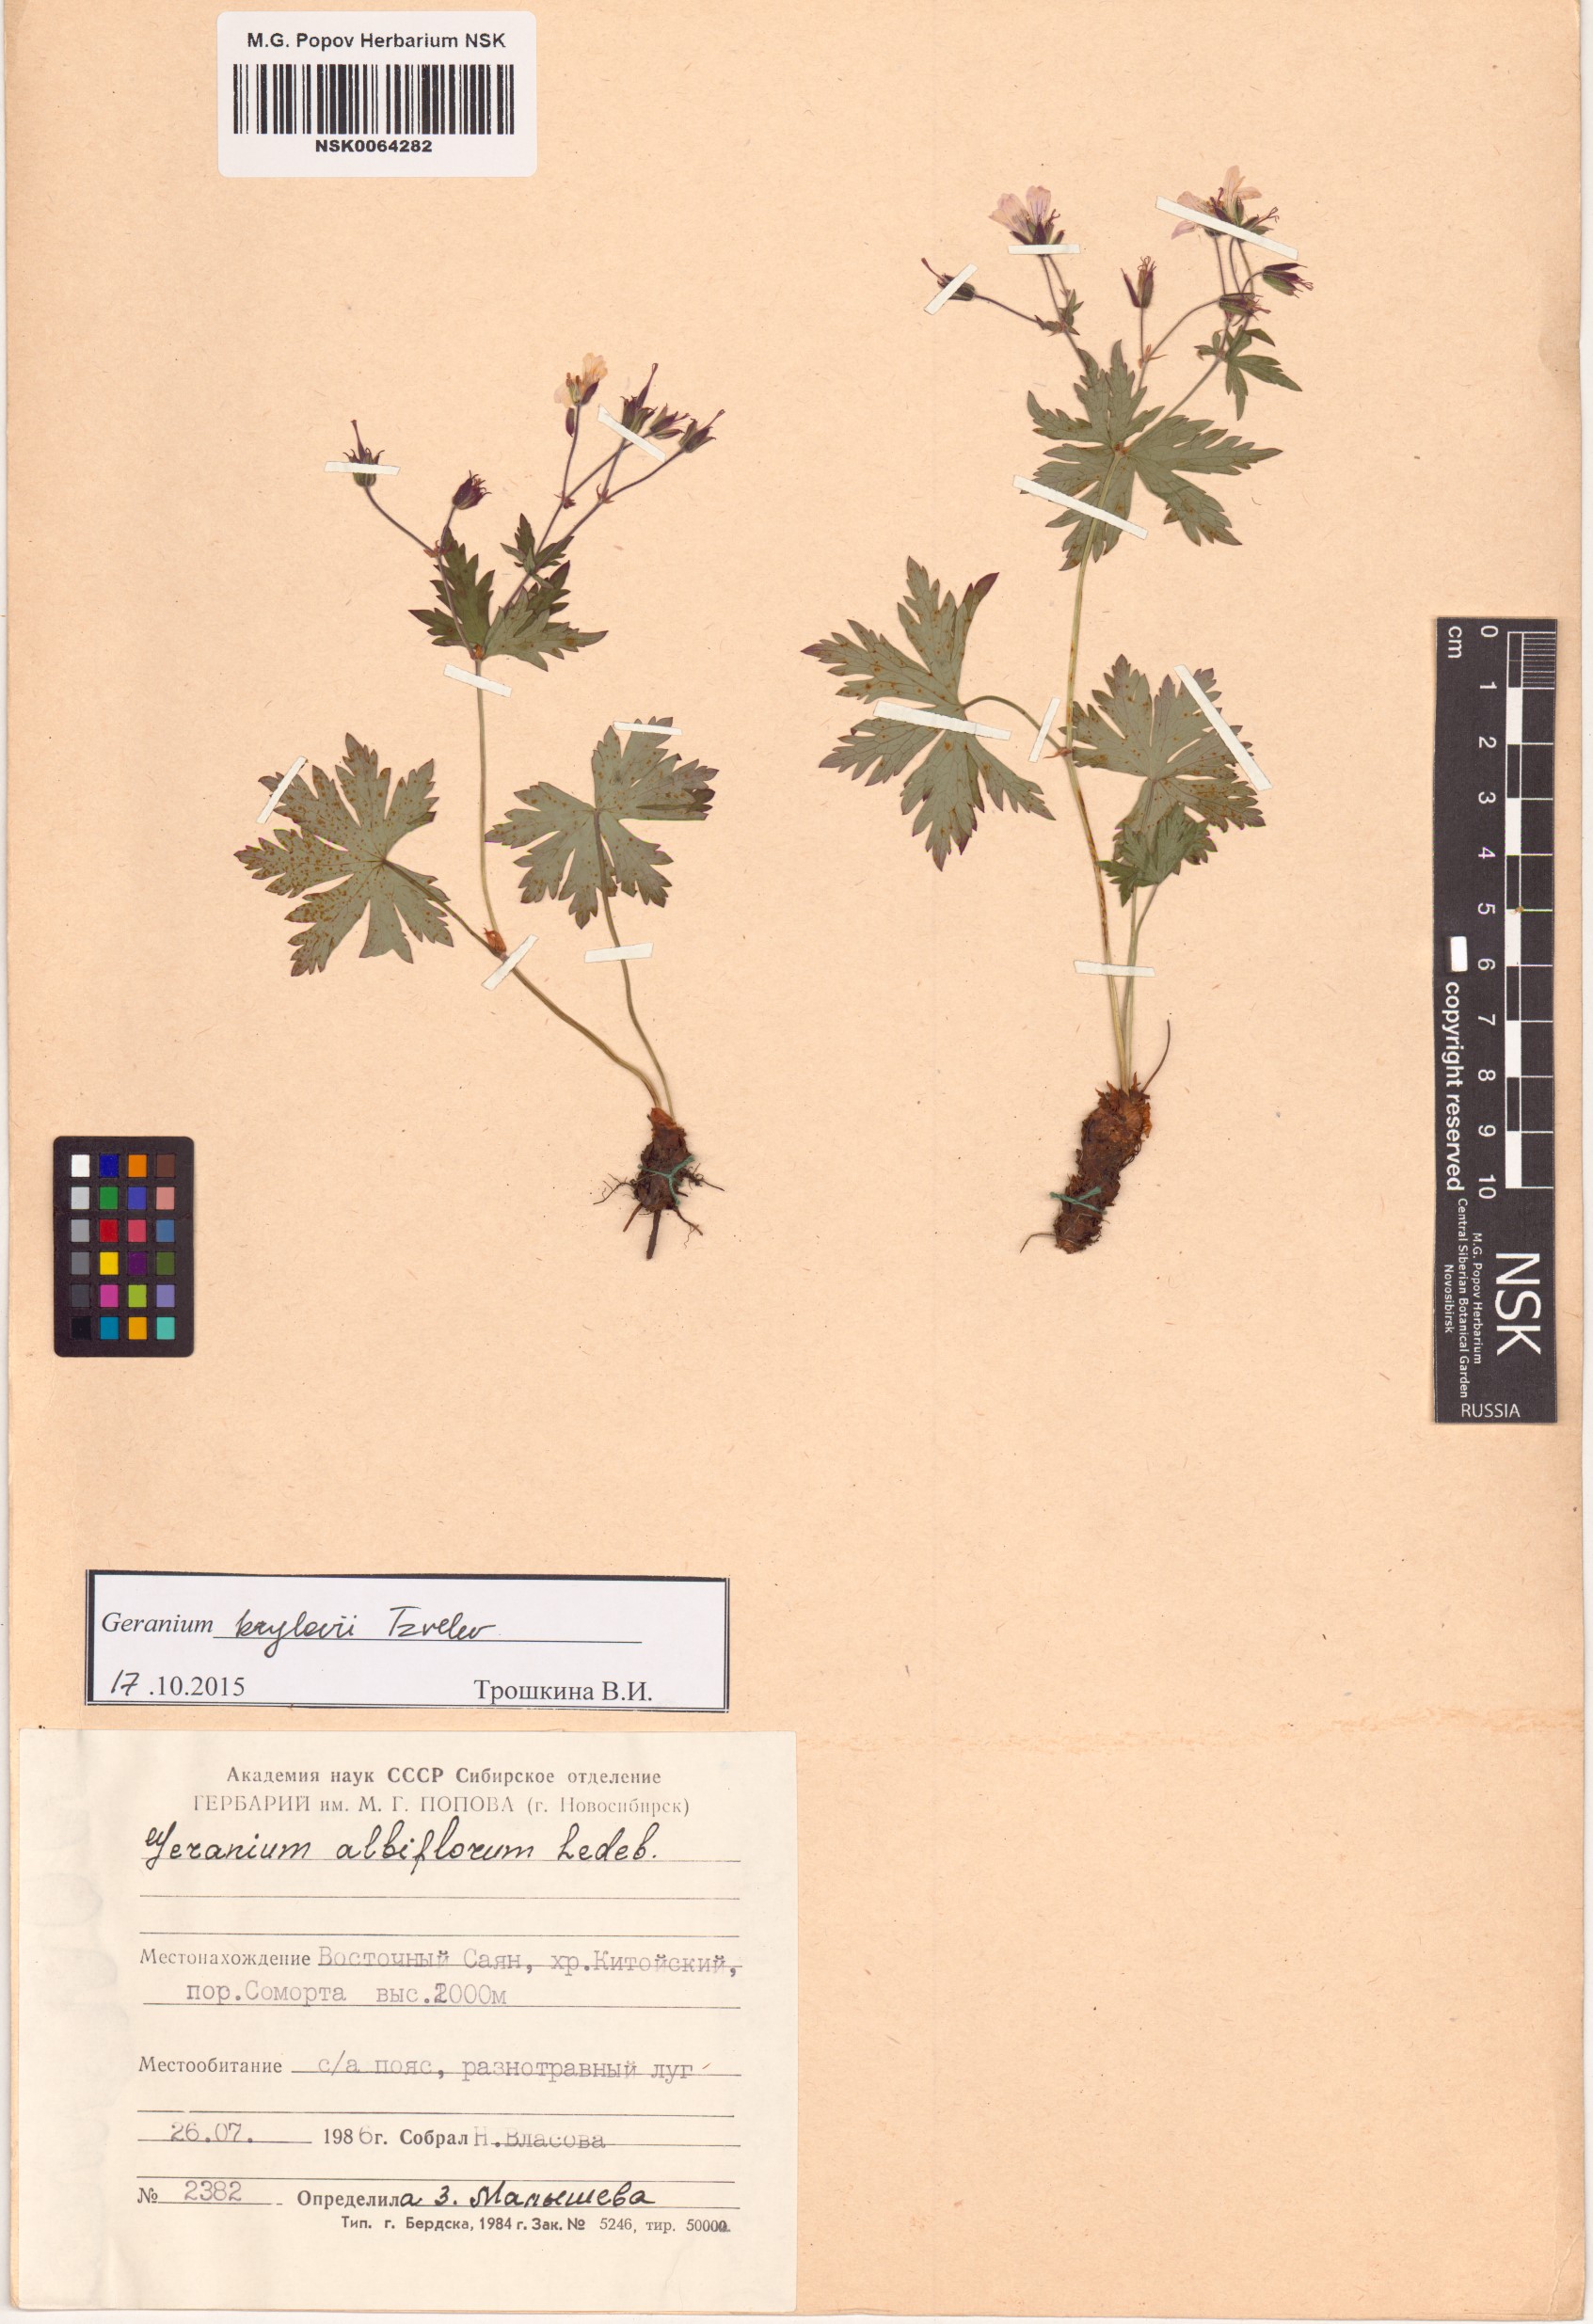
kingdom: Plantae
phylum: Tracheophyta
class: Magnoliopsida
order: Geraniales
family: Geraniaceae
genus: Geranium
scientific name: Geranium sylvaticum
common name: Wood crane's-bill
